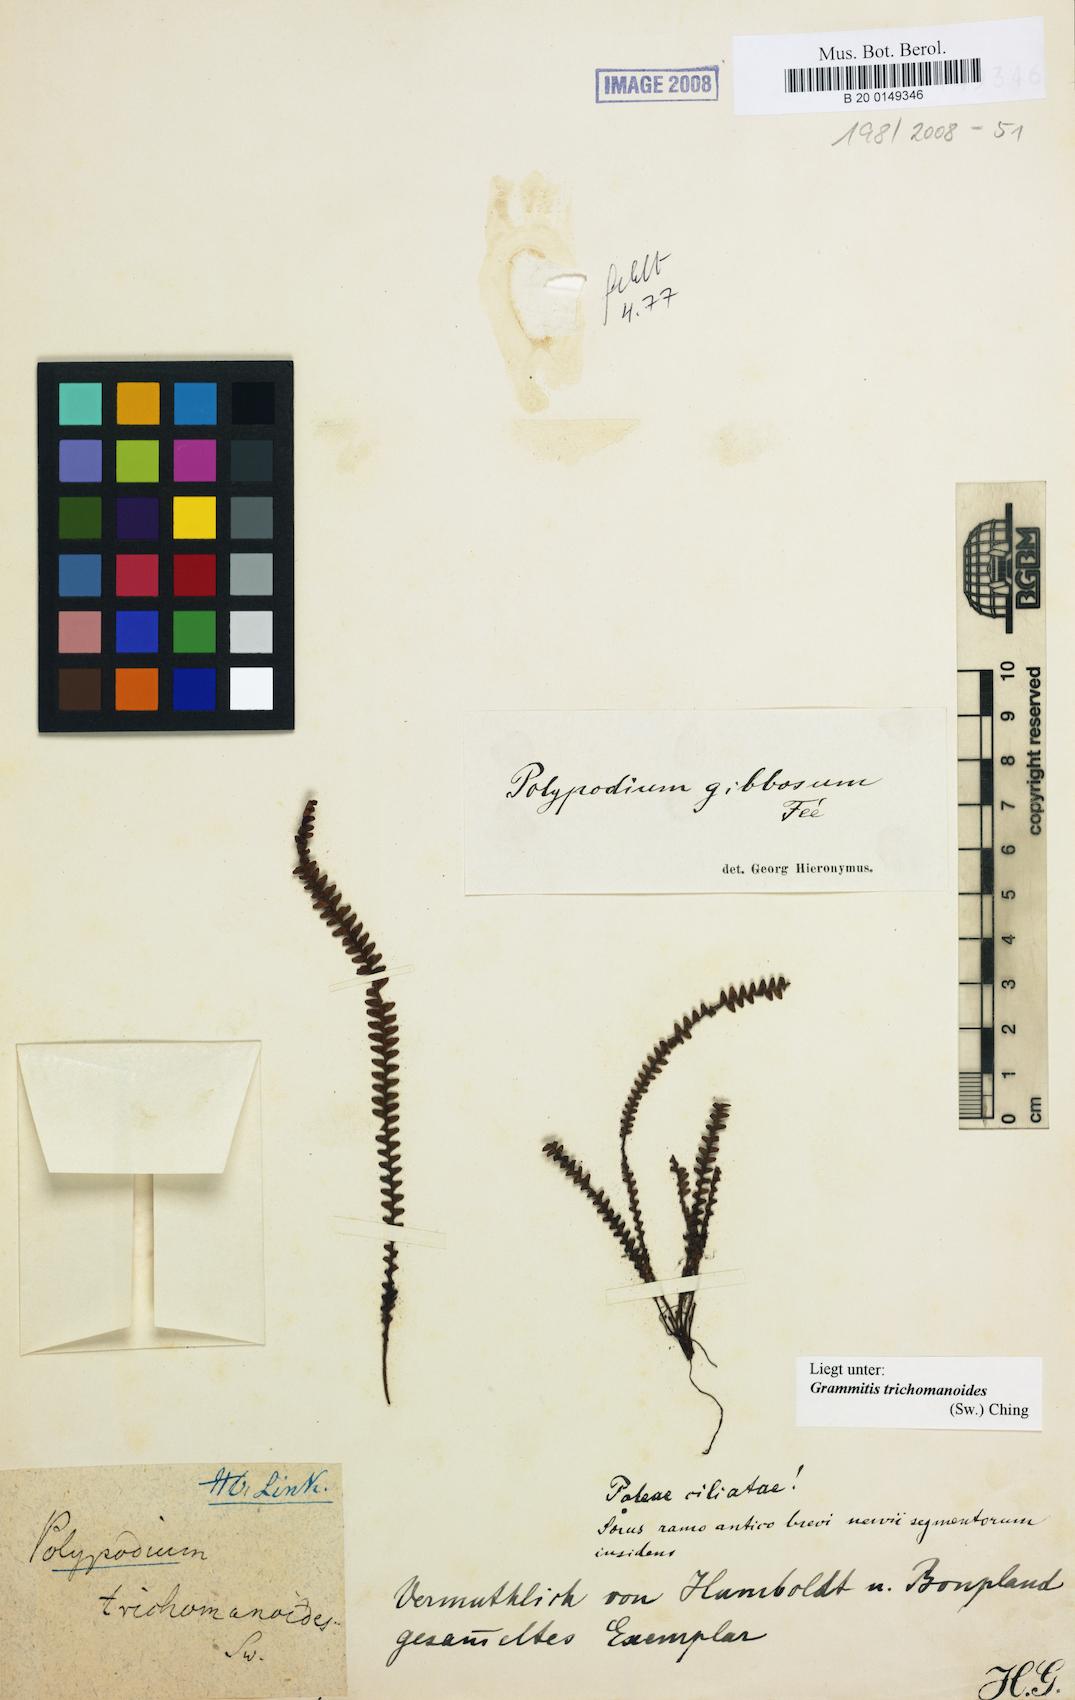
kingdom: Plantae
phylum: Tracheophyta
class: Polypodiopsida
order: Polypodiales
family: Polypodiaceae
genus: Moranopteris
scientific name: Moranopteris taenifolia
